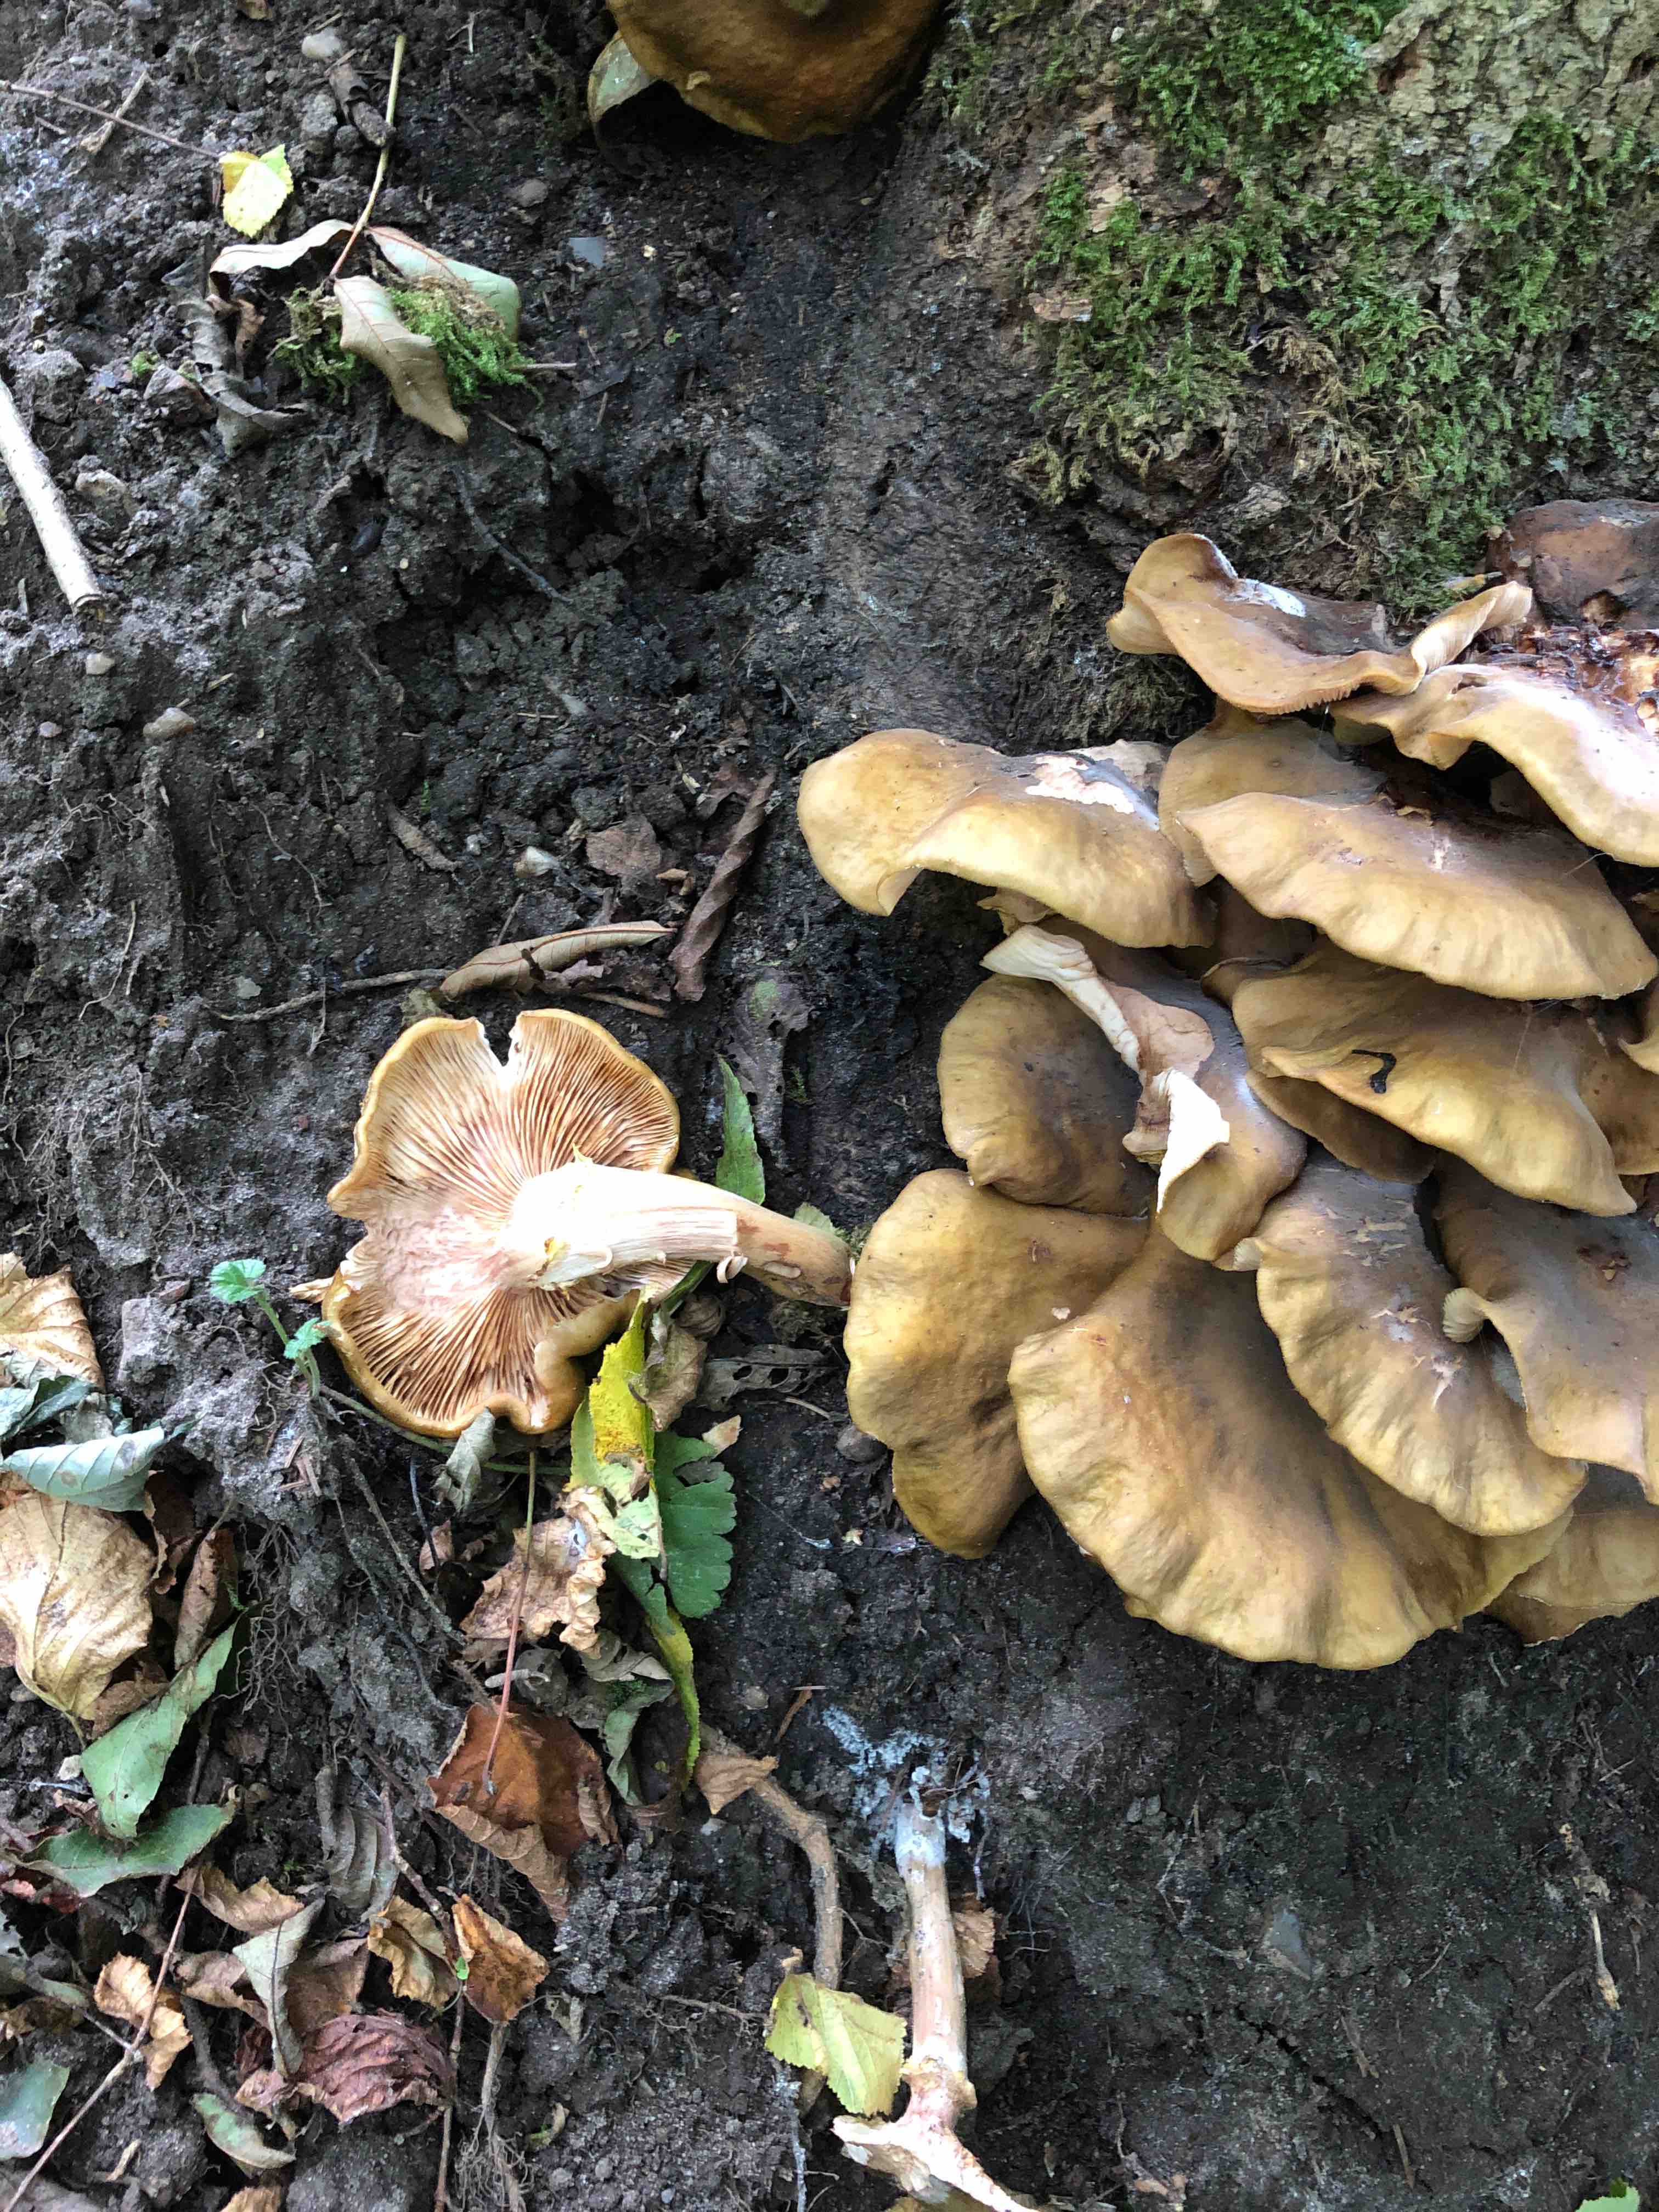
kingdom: Fungi
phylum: Basidiomycota
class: Agaricomycetes
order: Agaricales
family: Physalacriaceae
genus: Armillaria
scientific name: Armillaria mellea
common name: ægte honningsvamp
